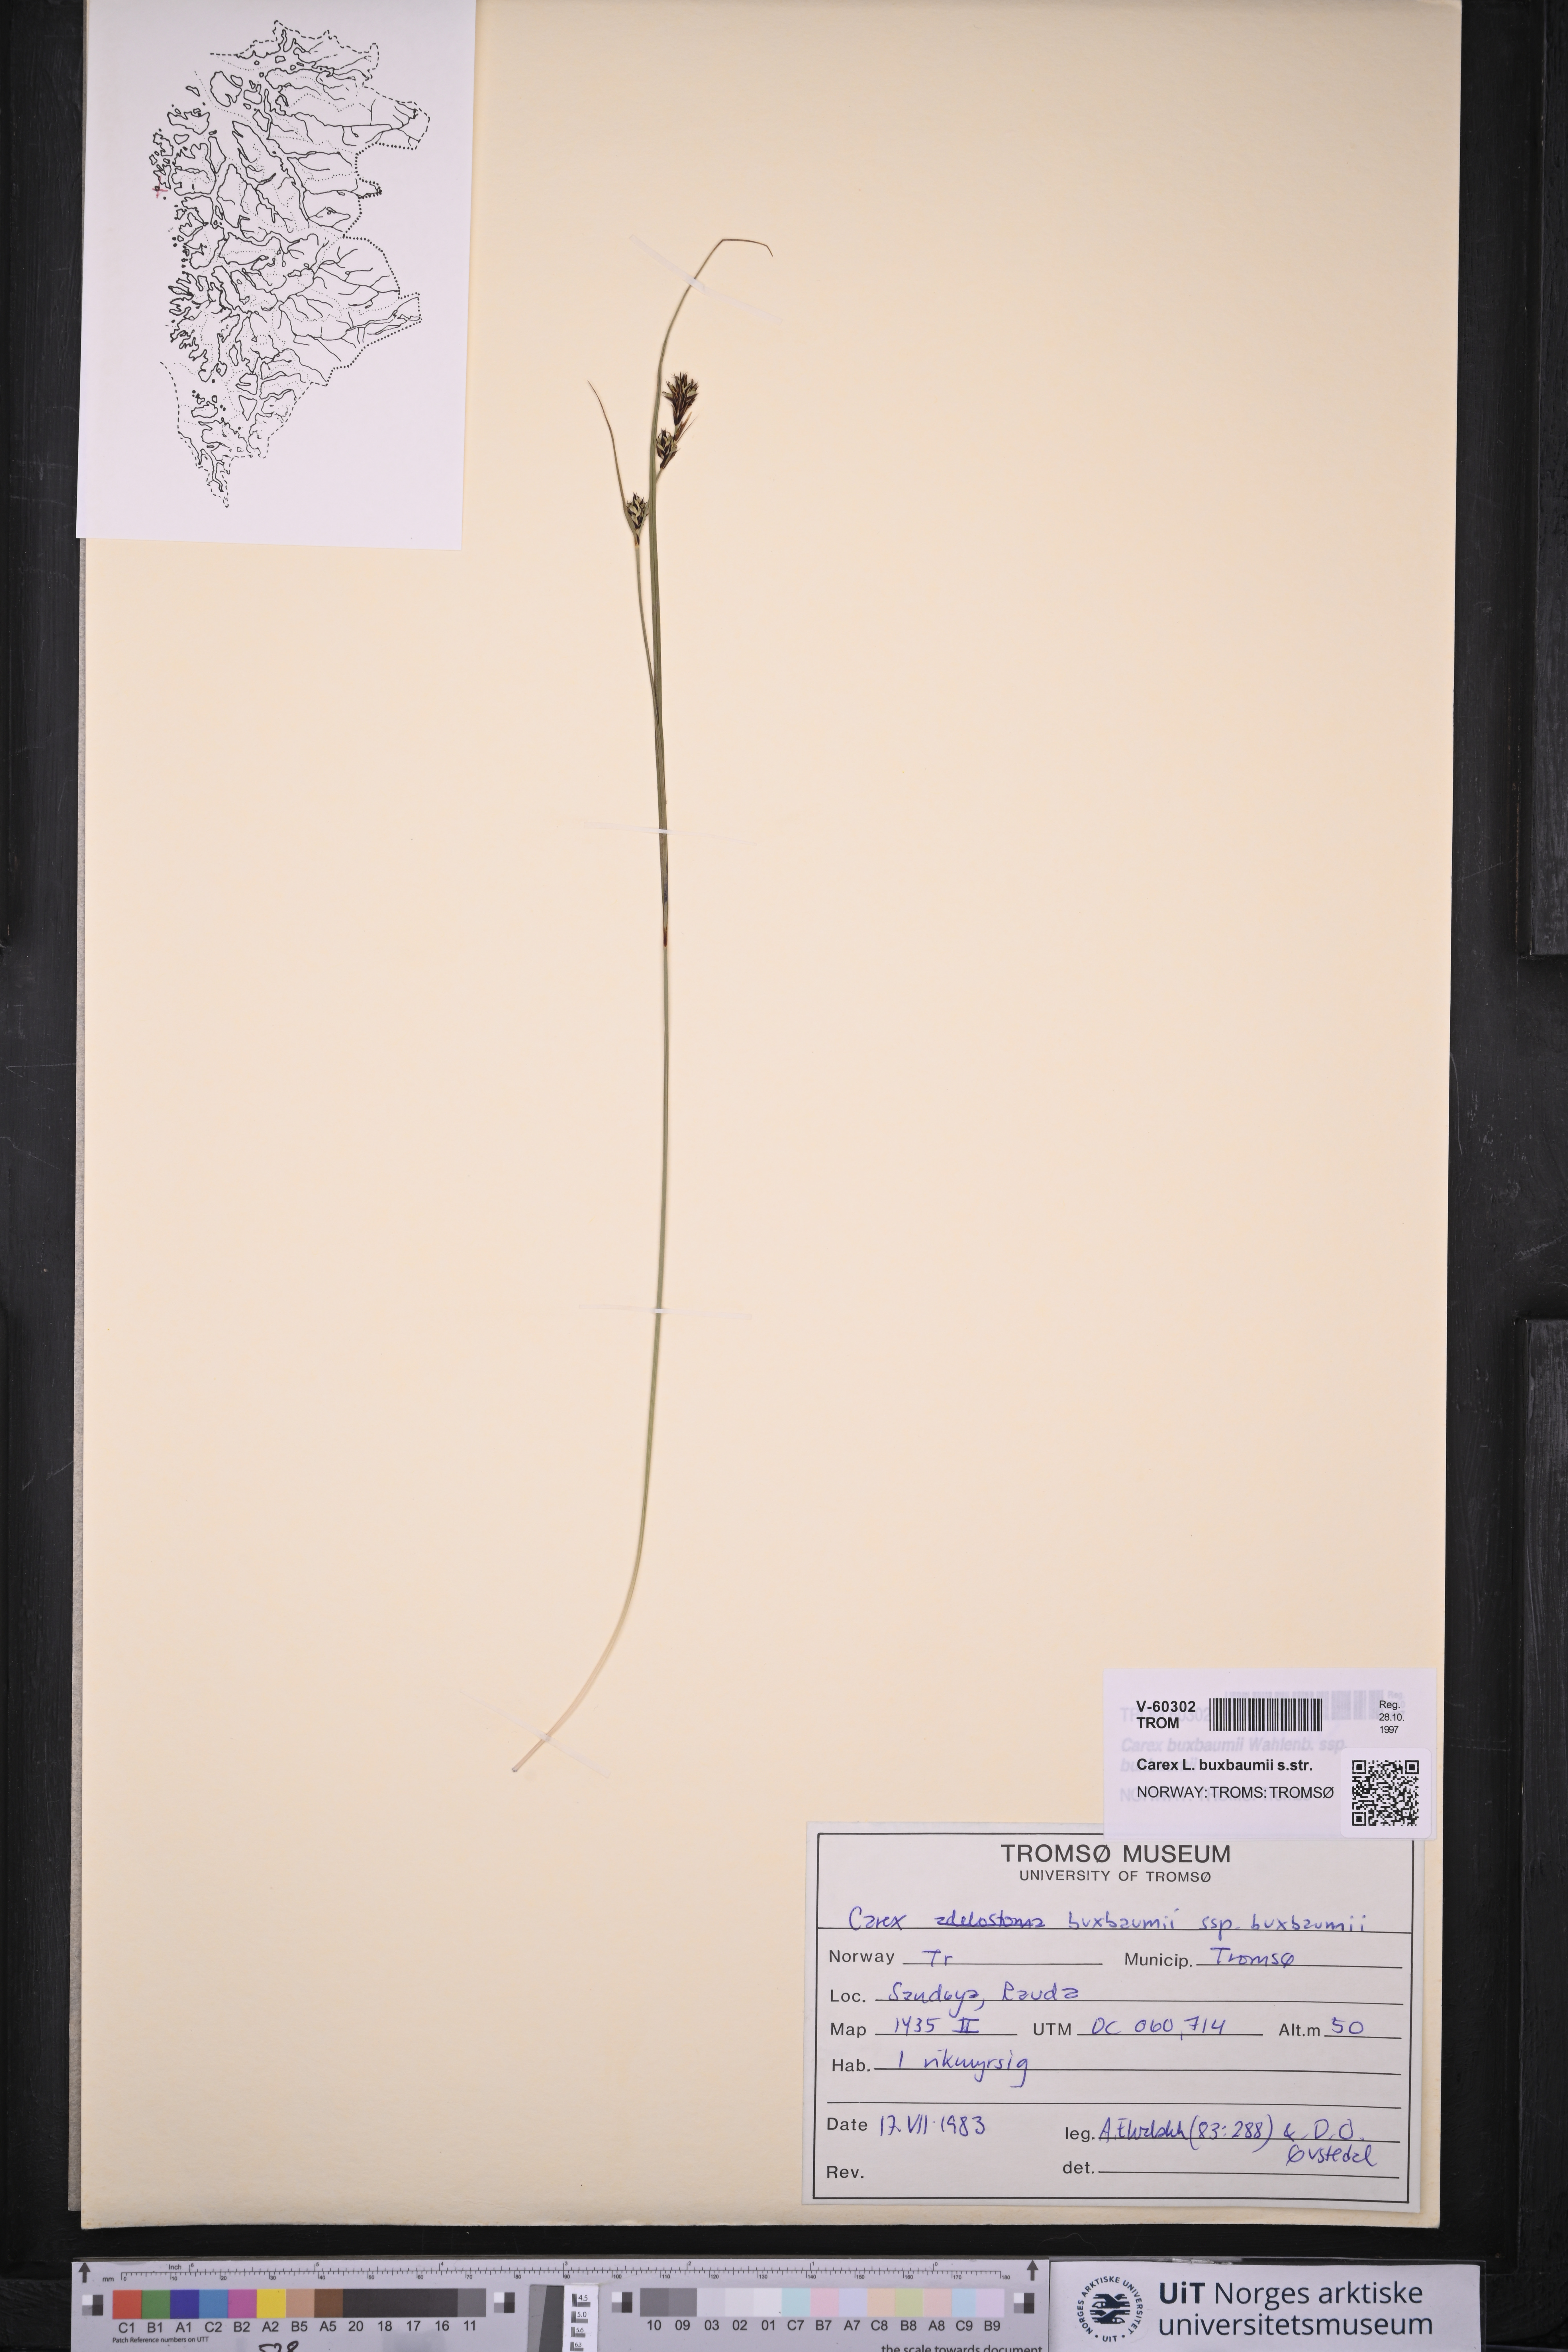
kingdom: Plantae
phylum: Tracheophyta
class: Liliopsida
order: Poales
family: Cyperaceae
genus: Carex
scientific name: Carex buxbaumii
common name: Club sedge
